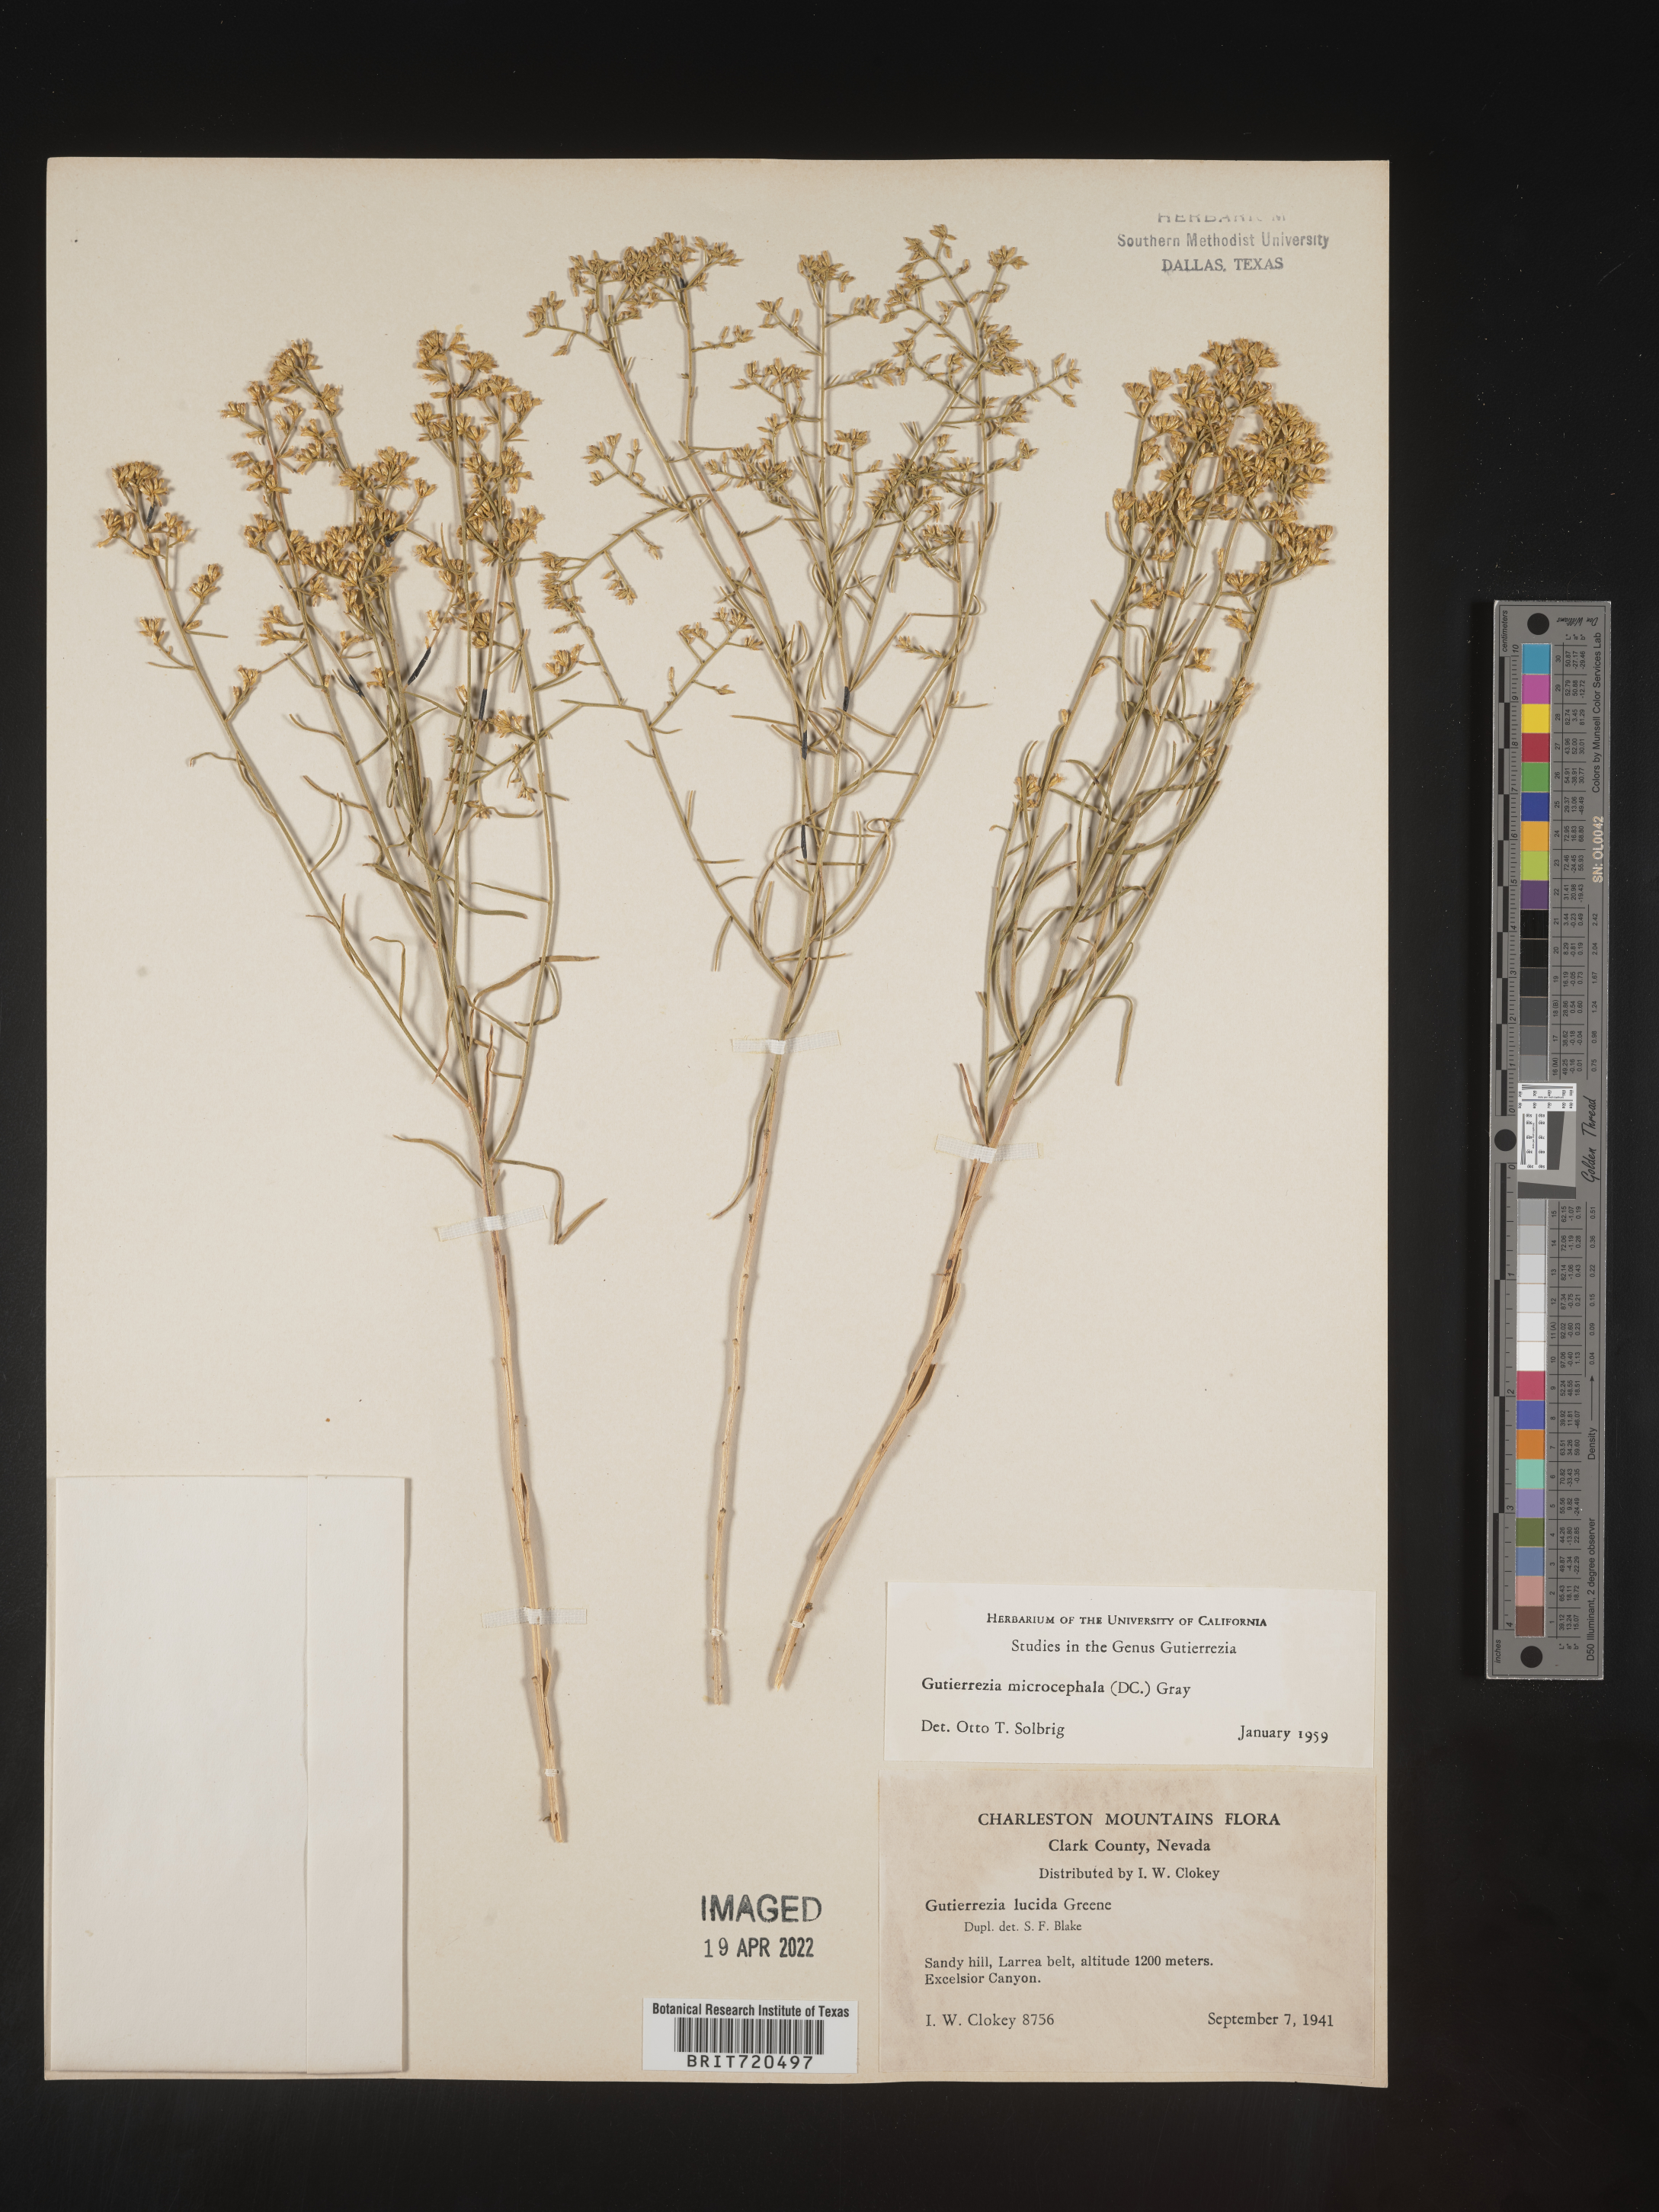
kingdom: Plantae
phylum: Tracheophyta
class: Magnoliopsida
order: Asterales
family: Asteraceae
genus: Gutierrezia
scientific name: Gutierrezia microcephala
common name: Thread snakeweed
